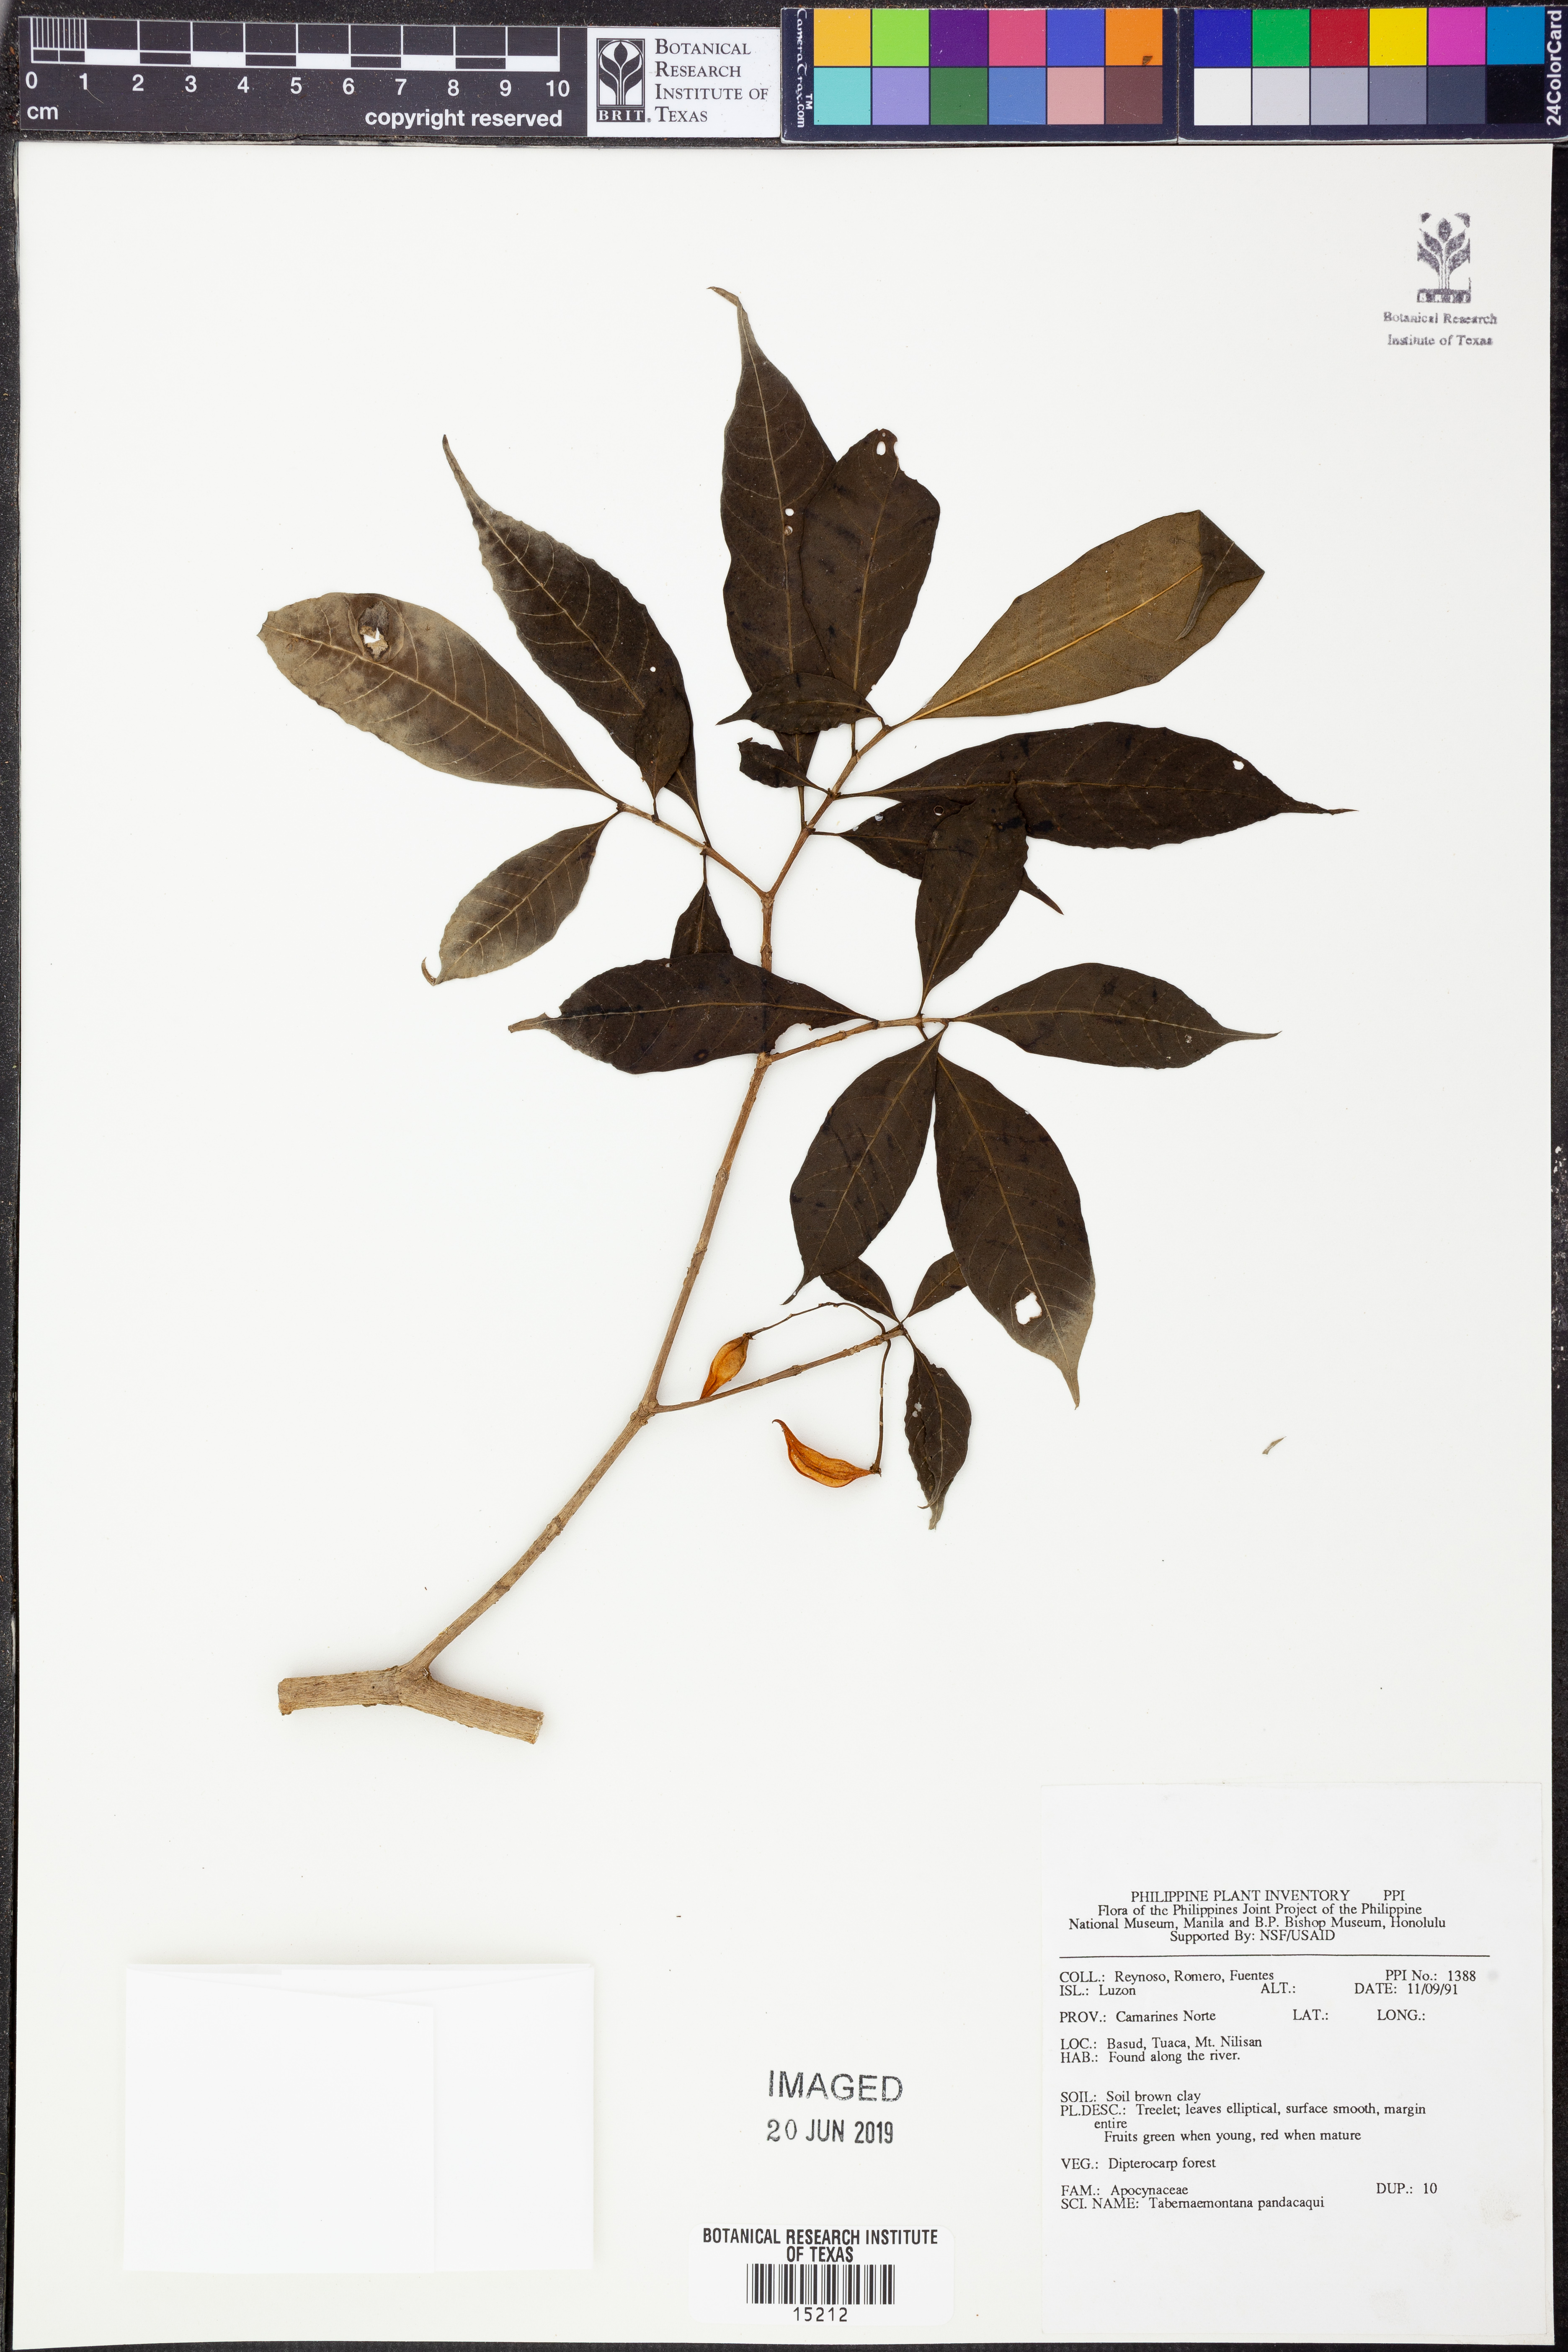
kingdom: Plantae
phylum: Tracheophyta
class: Magnoliopsida
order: Gentianales
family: Apocynaceae
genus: Tabernaemontana
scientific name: Tabernaemontana pandacaqui
